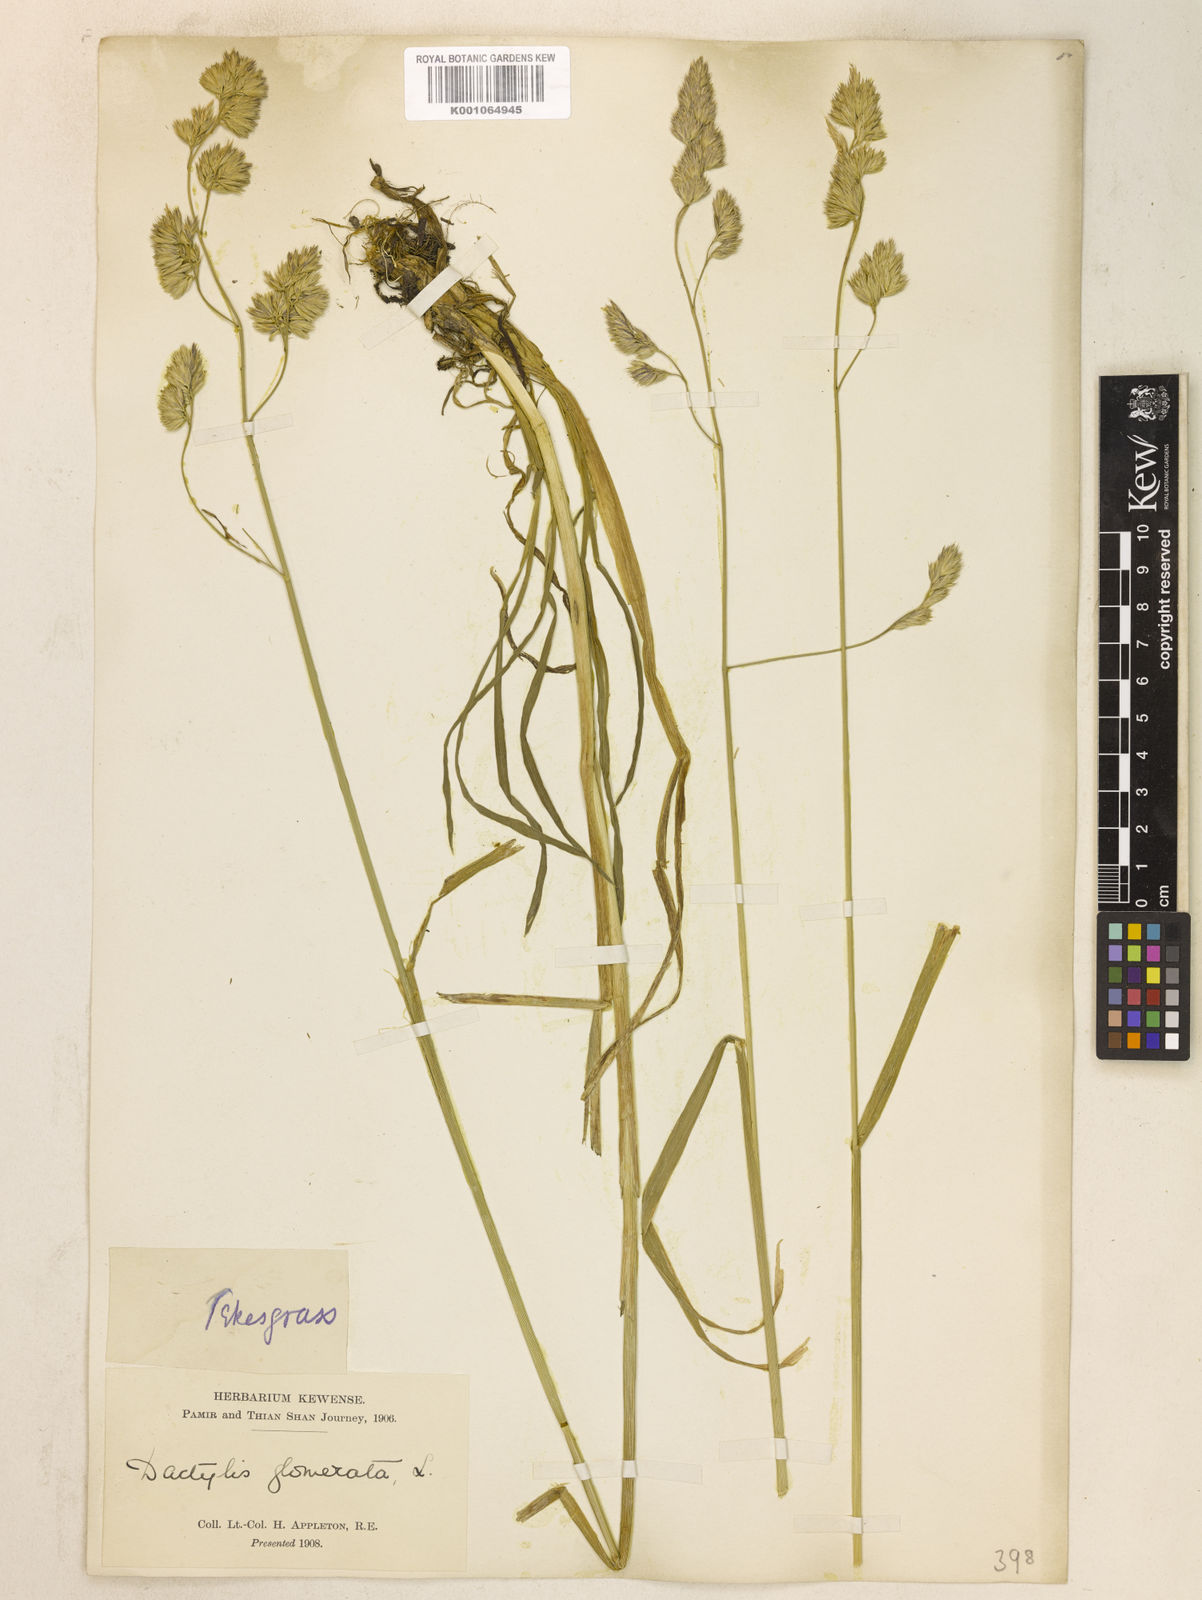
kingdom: Plantae
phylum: Tracheophyta
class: Liliopsida
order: Poales
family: Poaceae
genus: Dactylis
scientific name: Dactylis glomerata
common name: Orchardgrass
